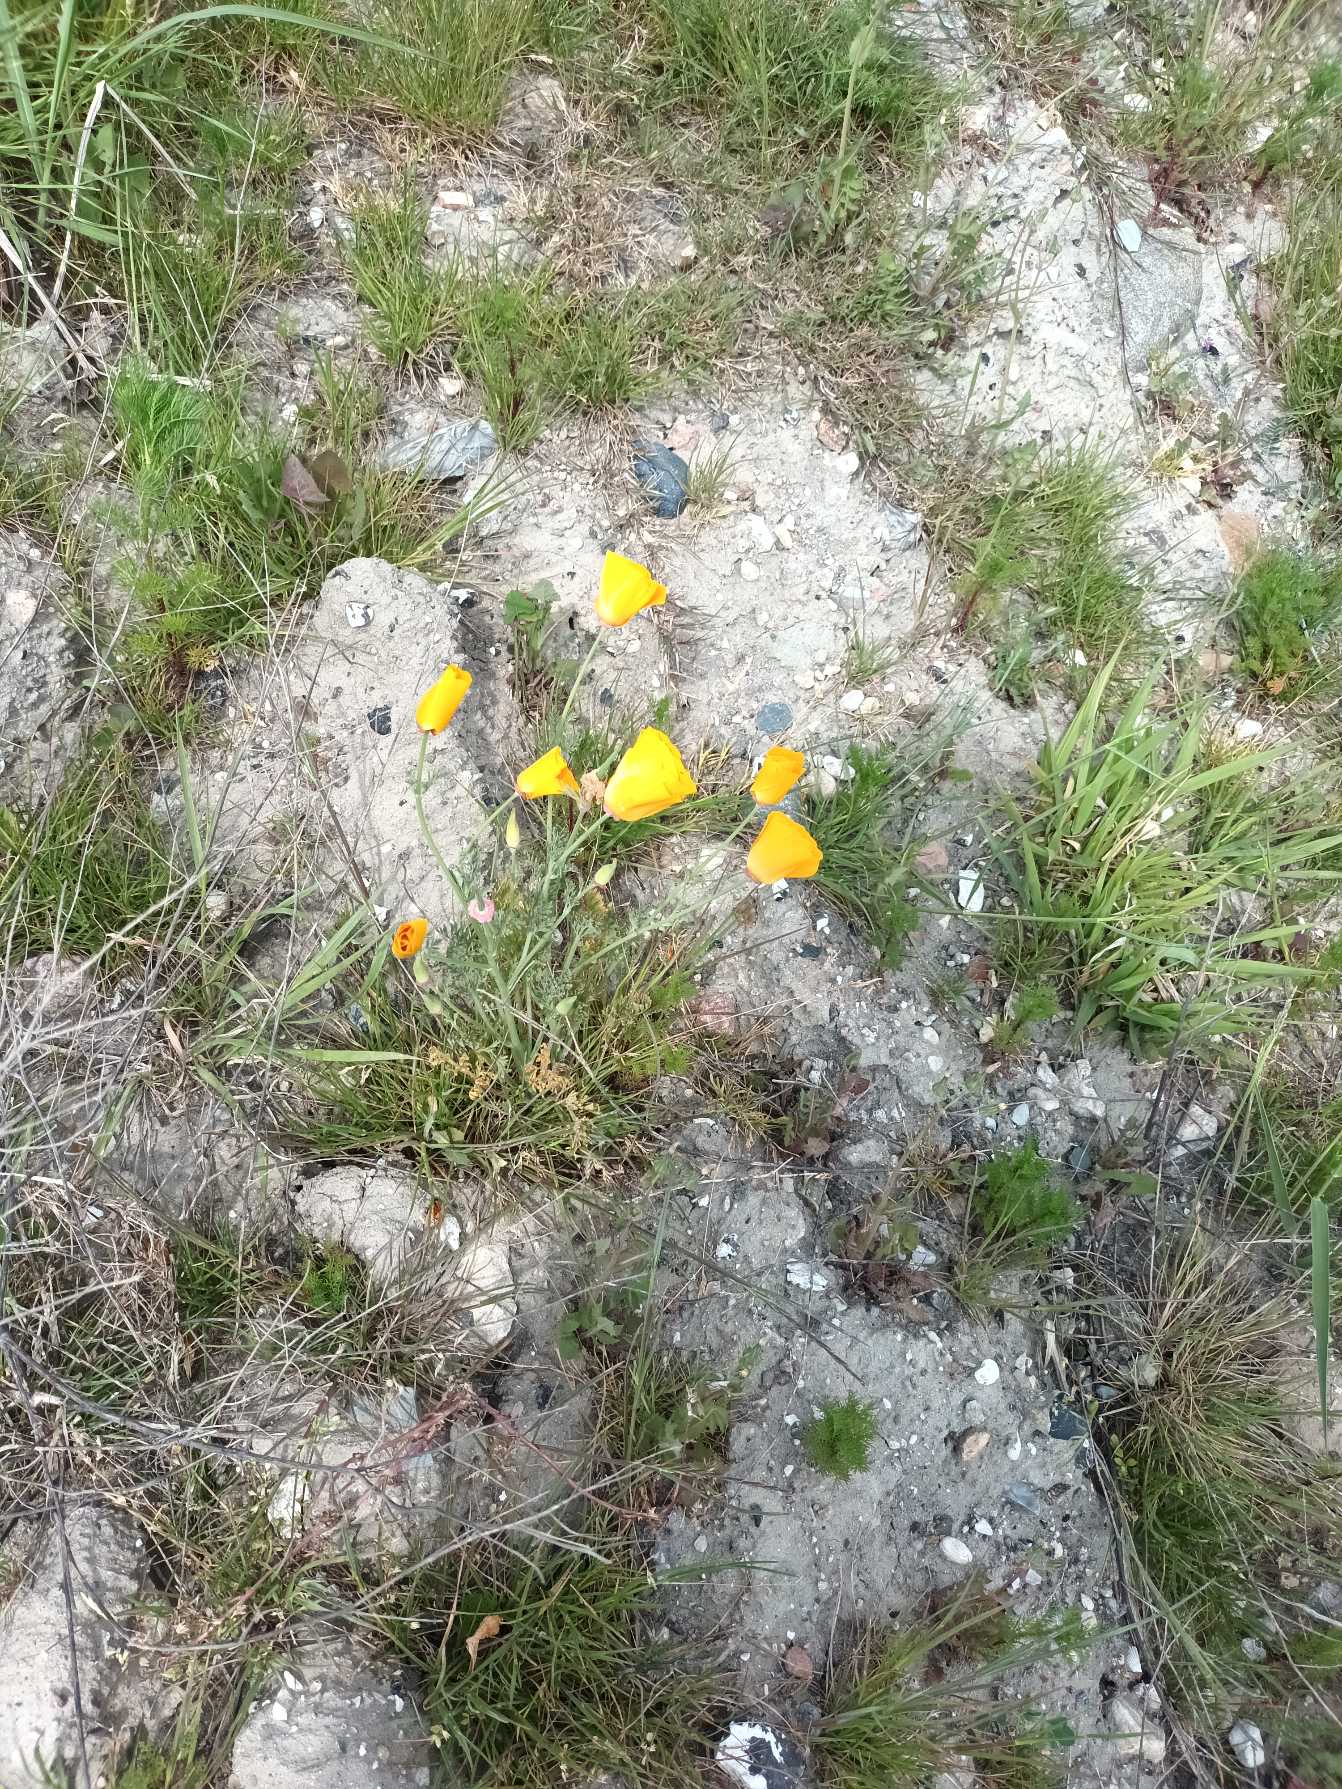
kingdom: Plantae
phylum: Tracheophyta
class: Magnoliopsida
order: Ranunculales
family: Papaveraceae
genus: Eschscholzia
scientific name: Eschscholzia californica
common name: Guldvalmue
